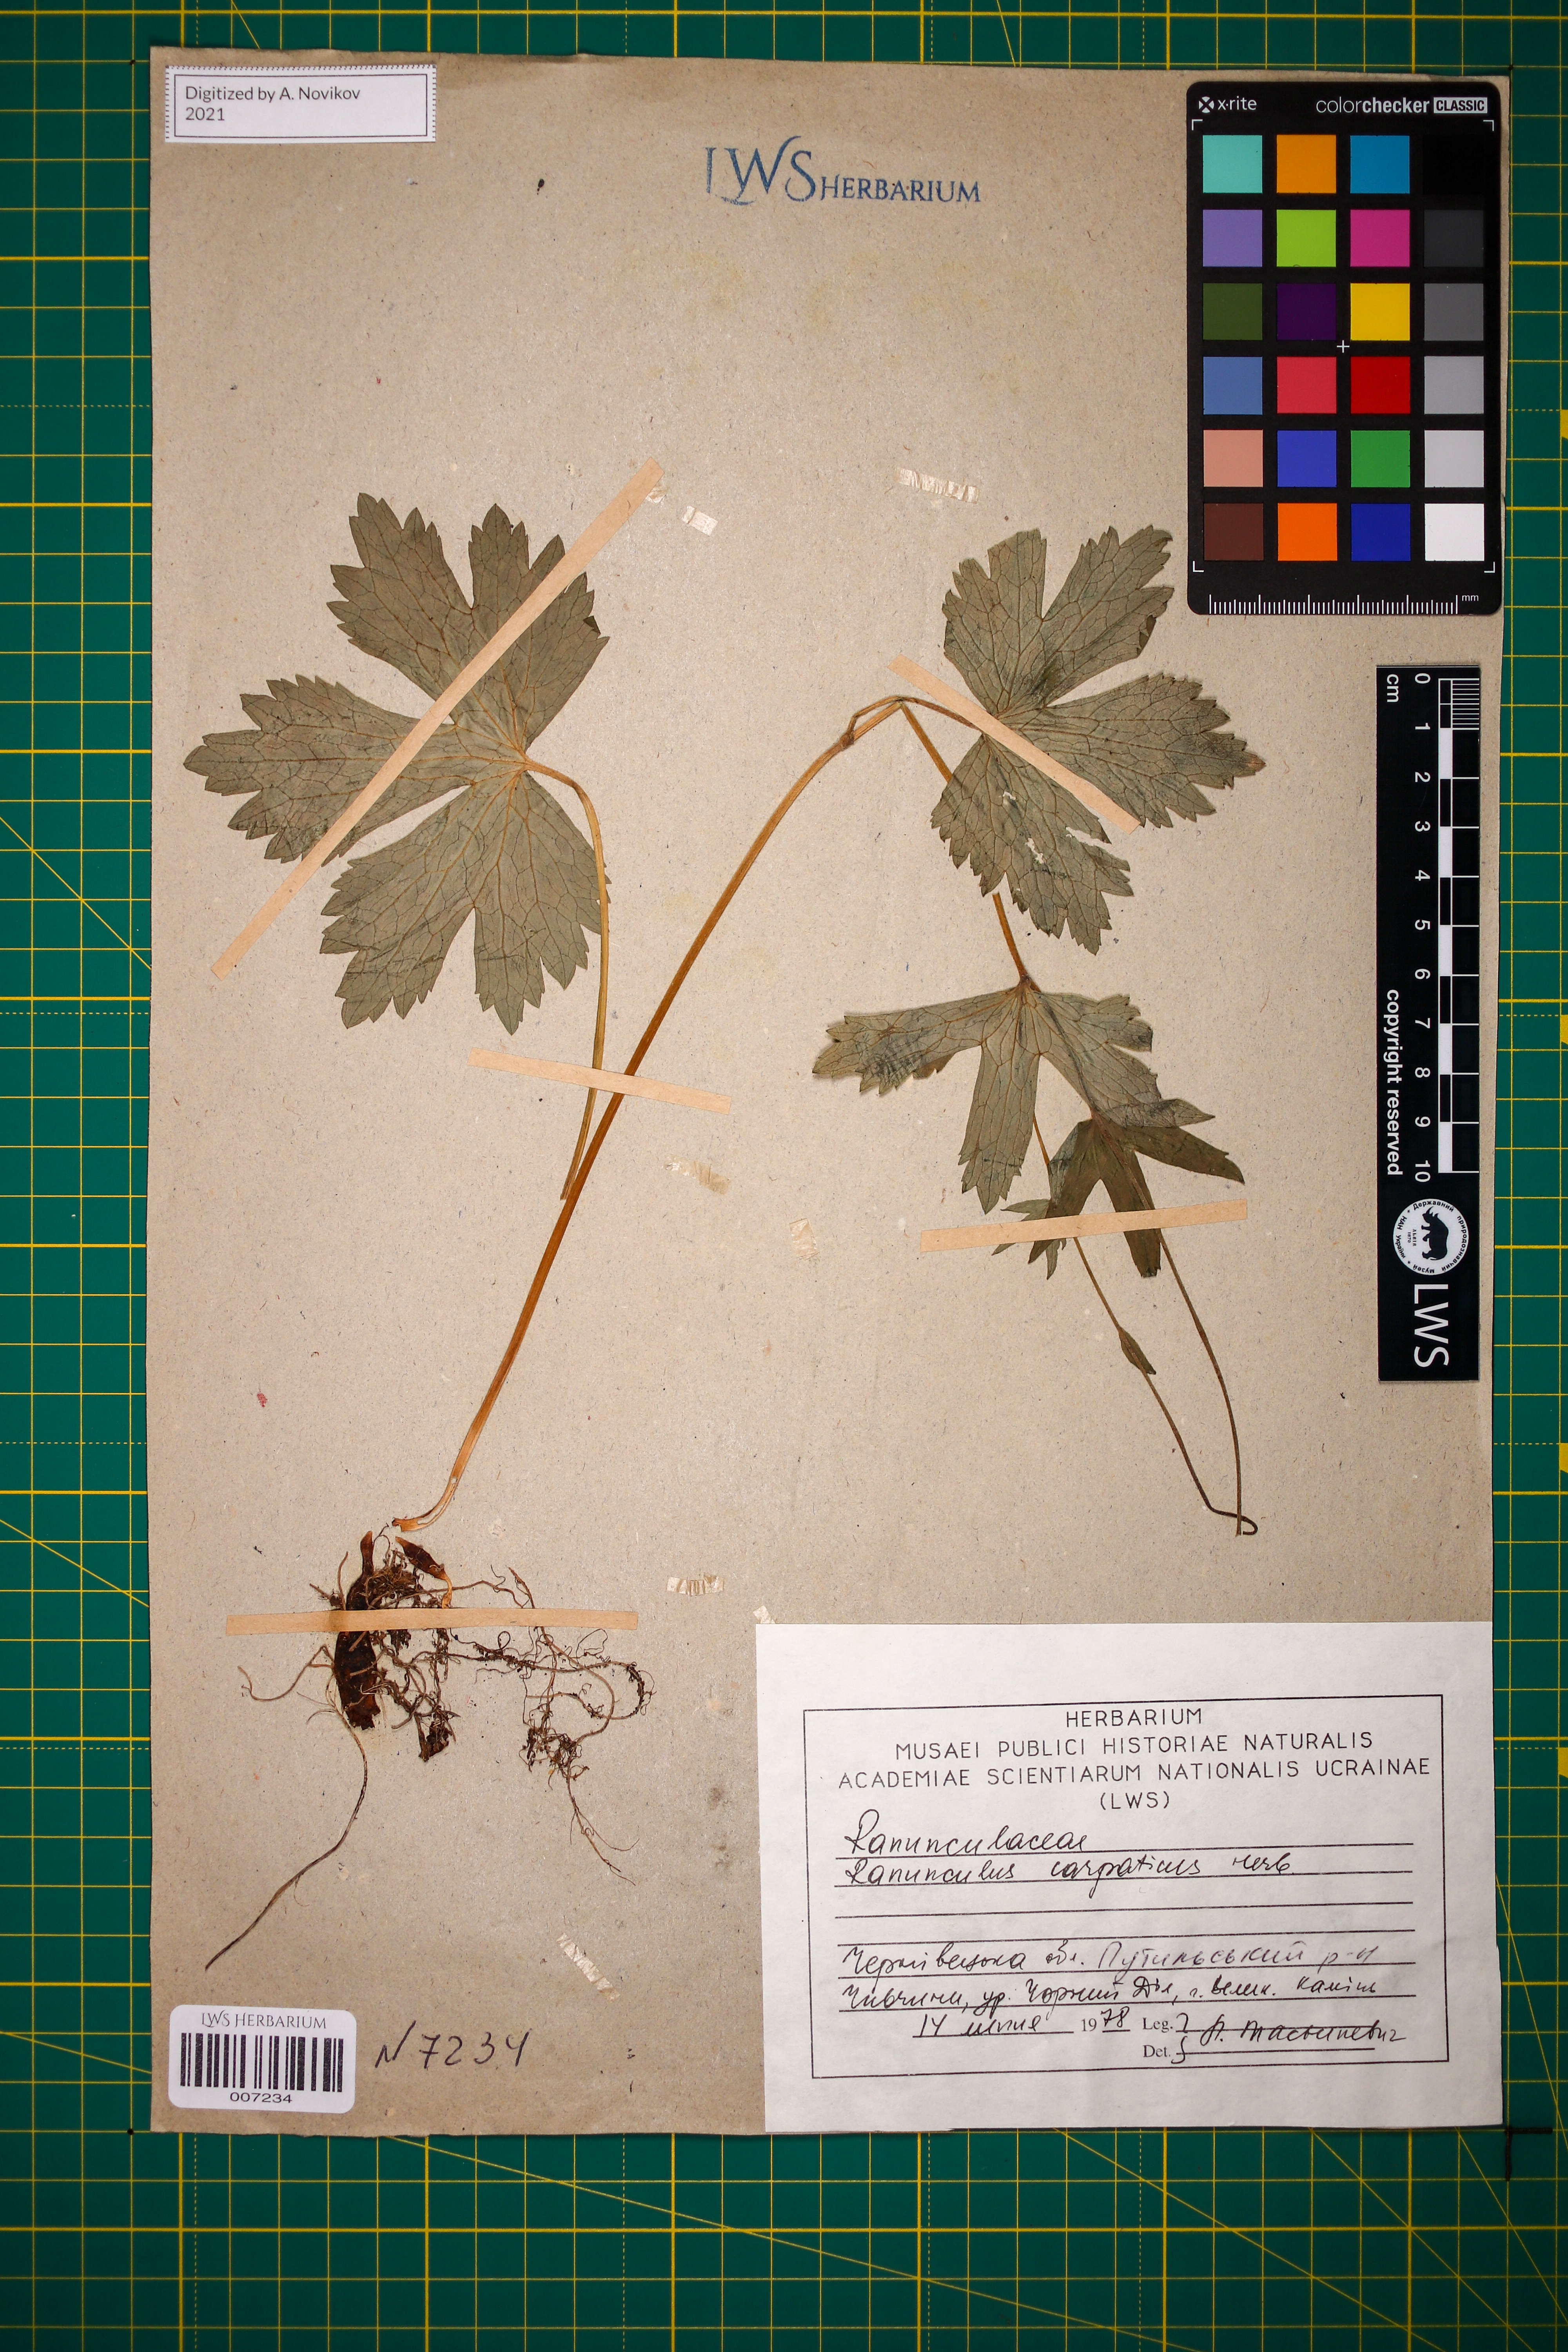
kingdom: Plantae
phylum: Tracheophyta
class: Magnoliopsida
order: Ranunculales
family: Ranunculaceae
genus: Ranunculus
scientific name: Ranunculus carpaticus
